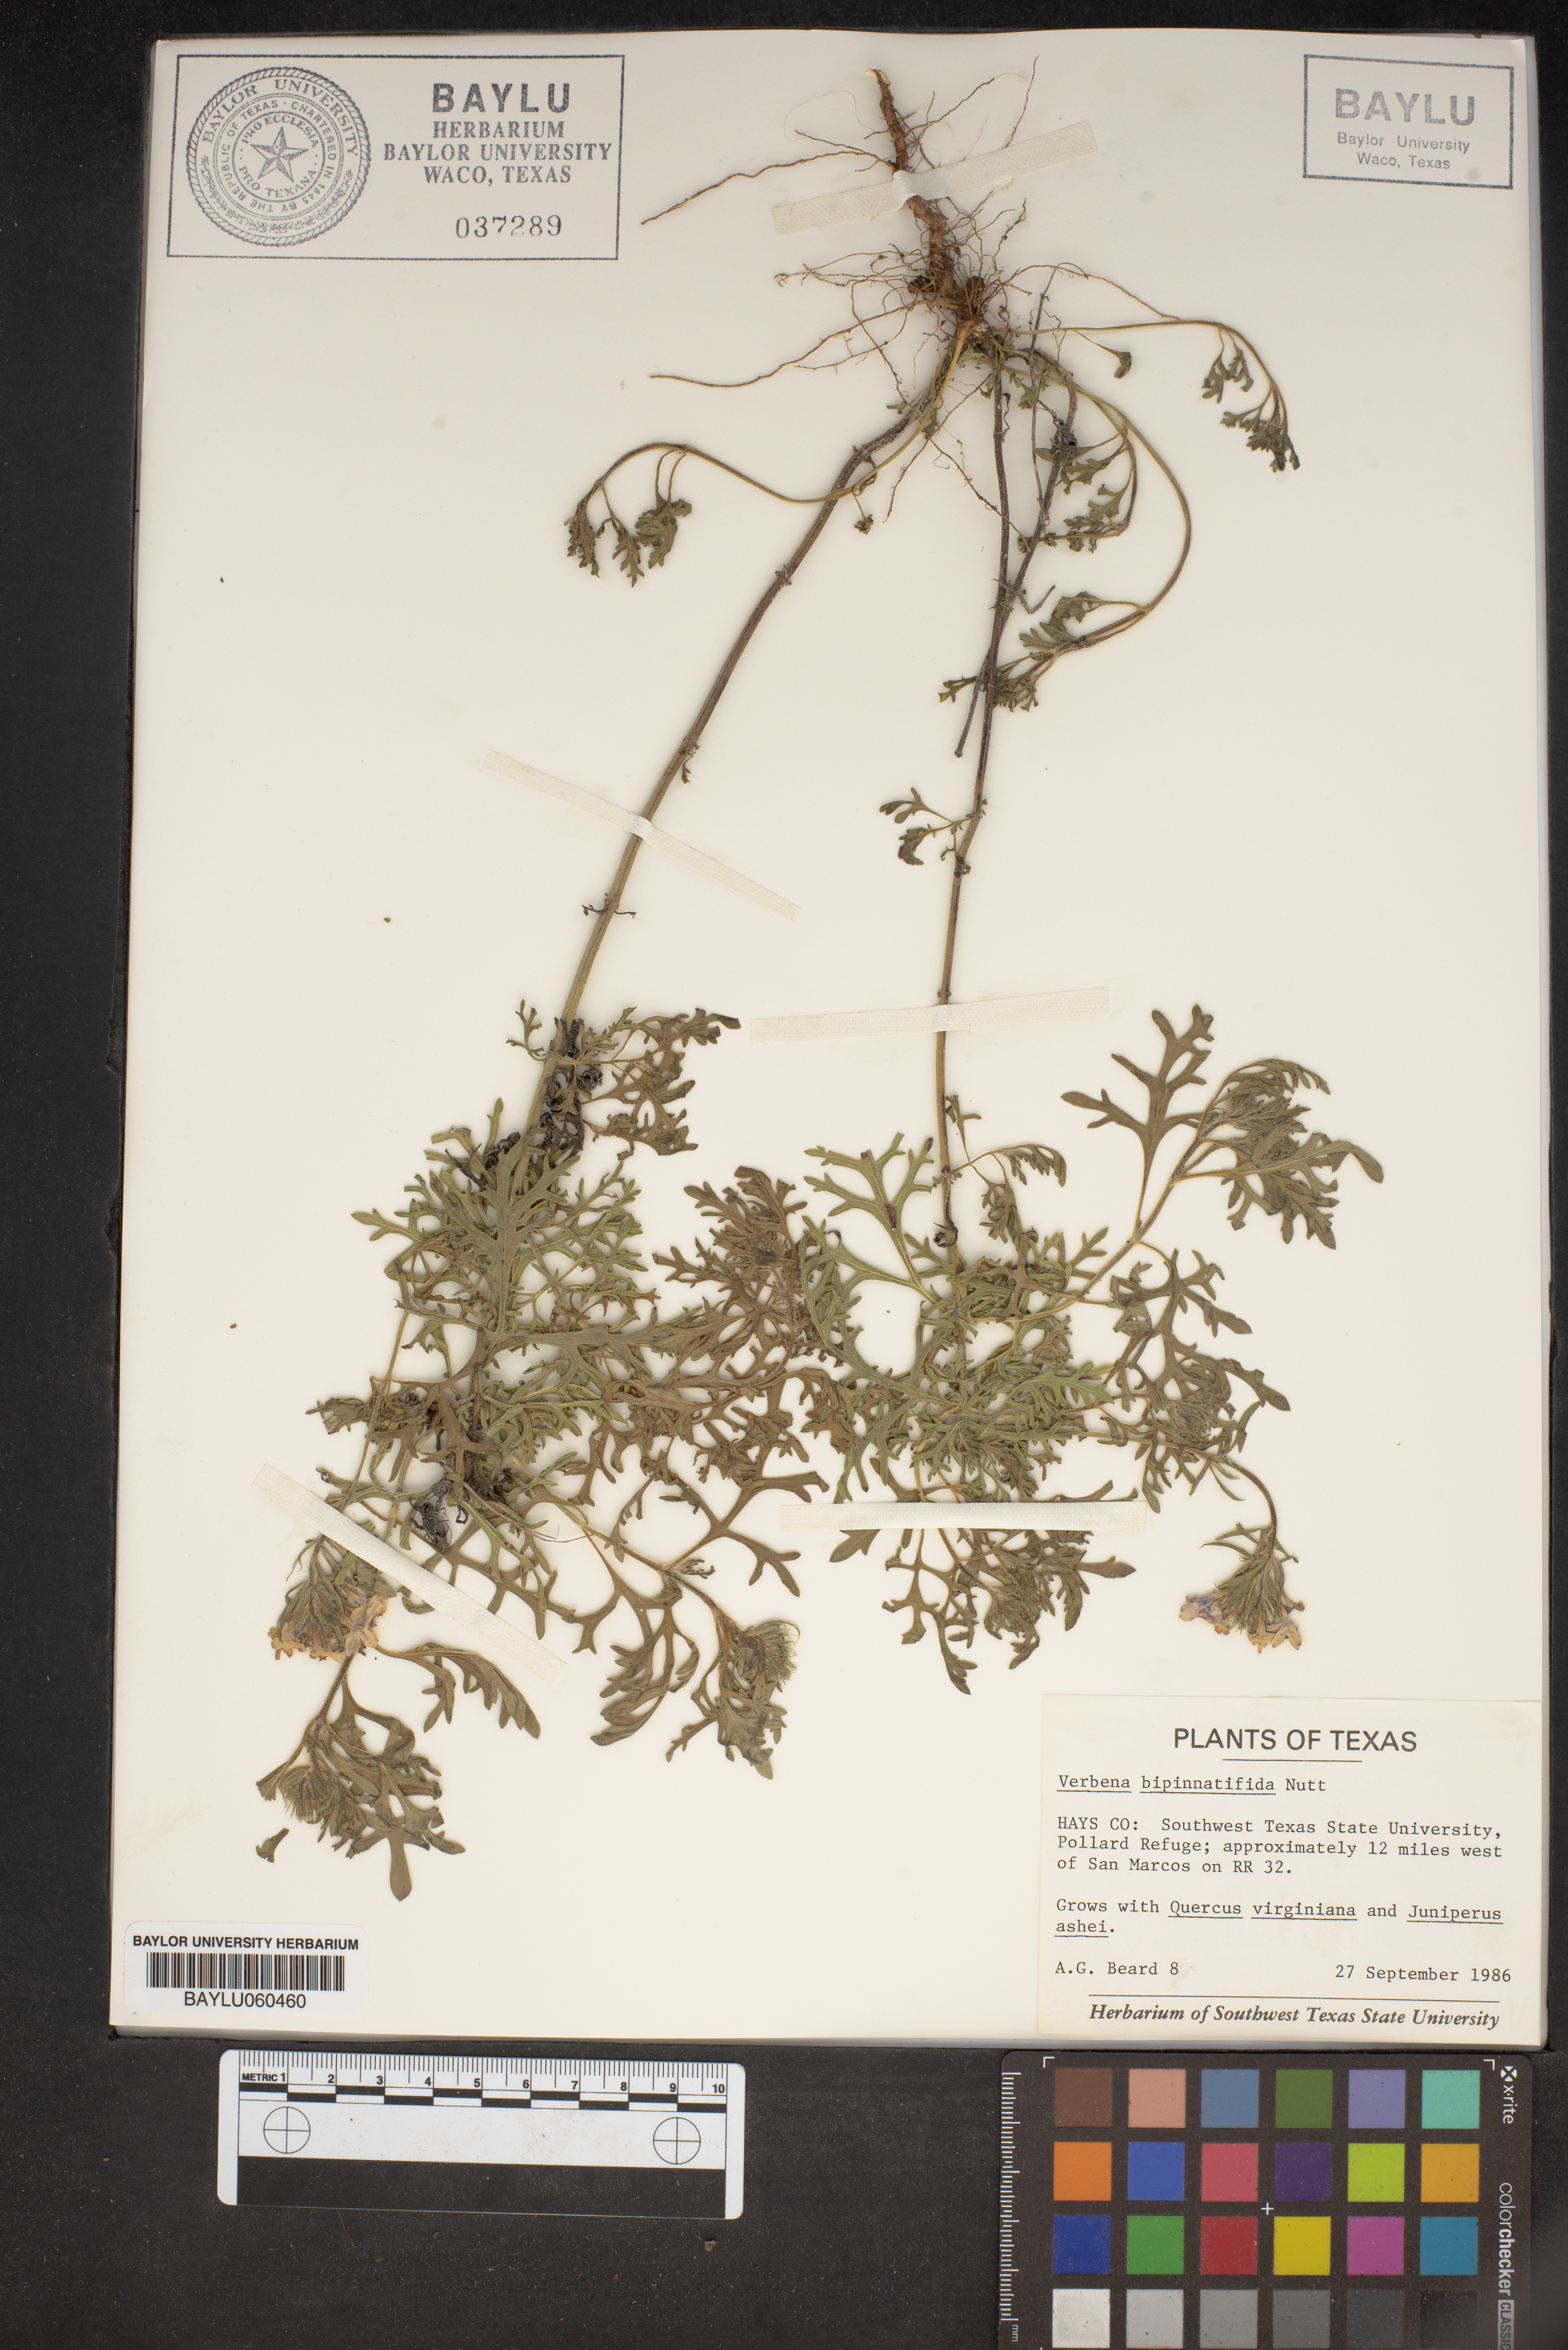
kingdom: Plantae
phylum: Tracheophyta
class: Magnoliopsida
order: Lamiales
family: Verbenaceae
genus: Verbena
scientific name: Verbena bipinnatifida
